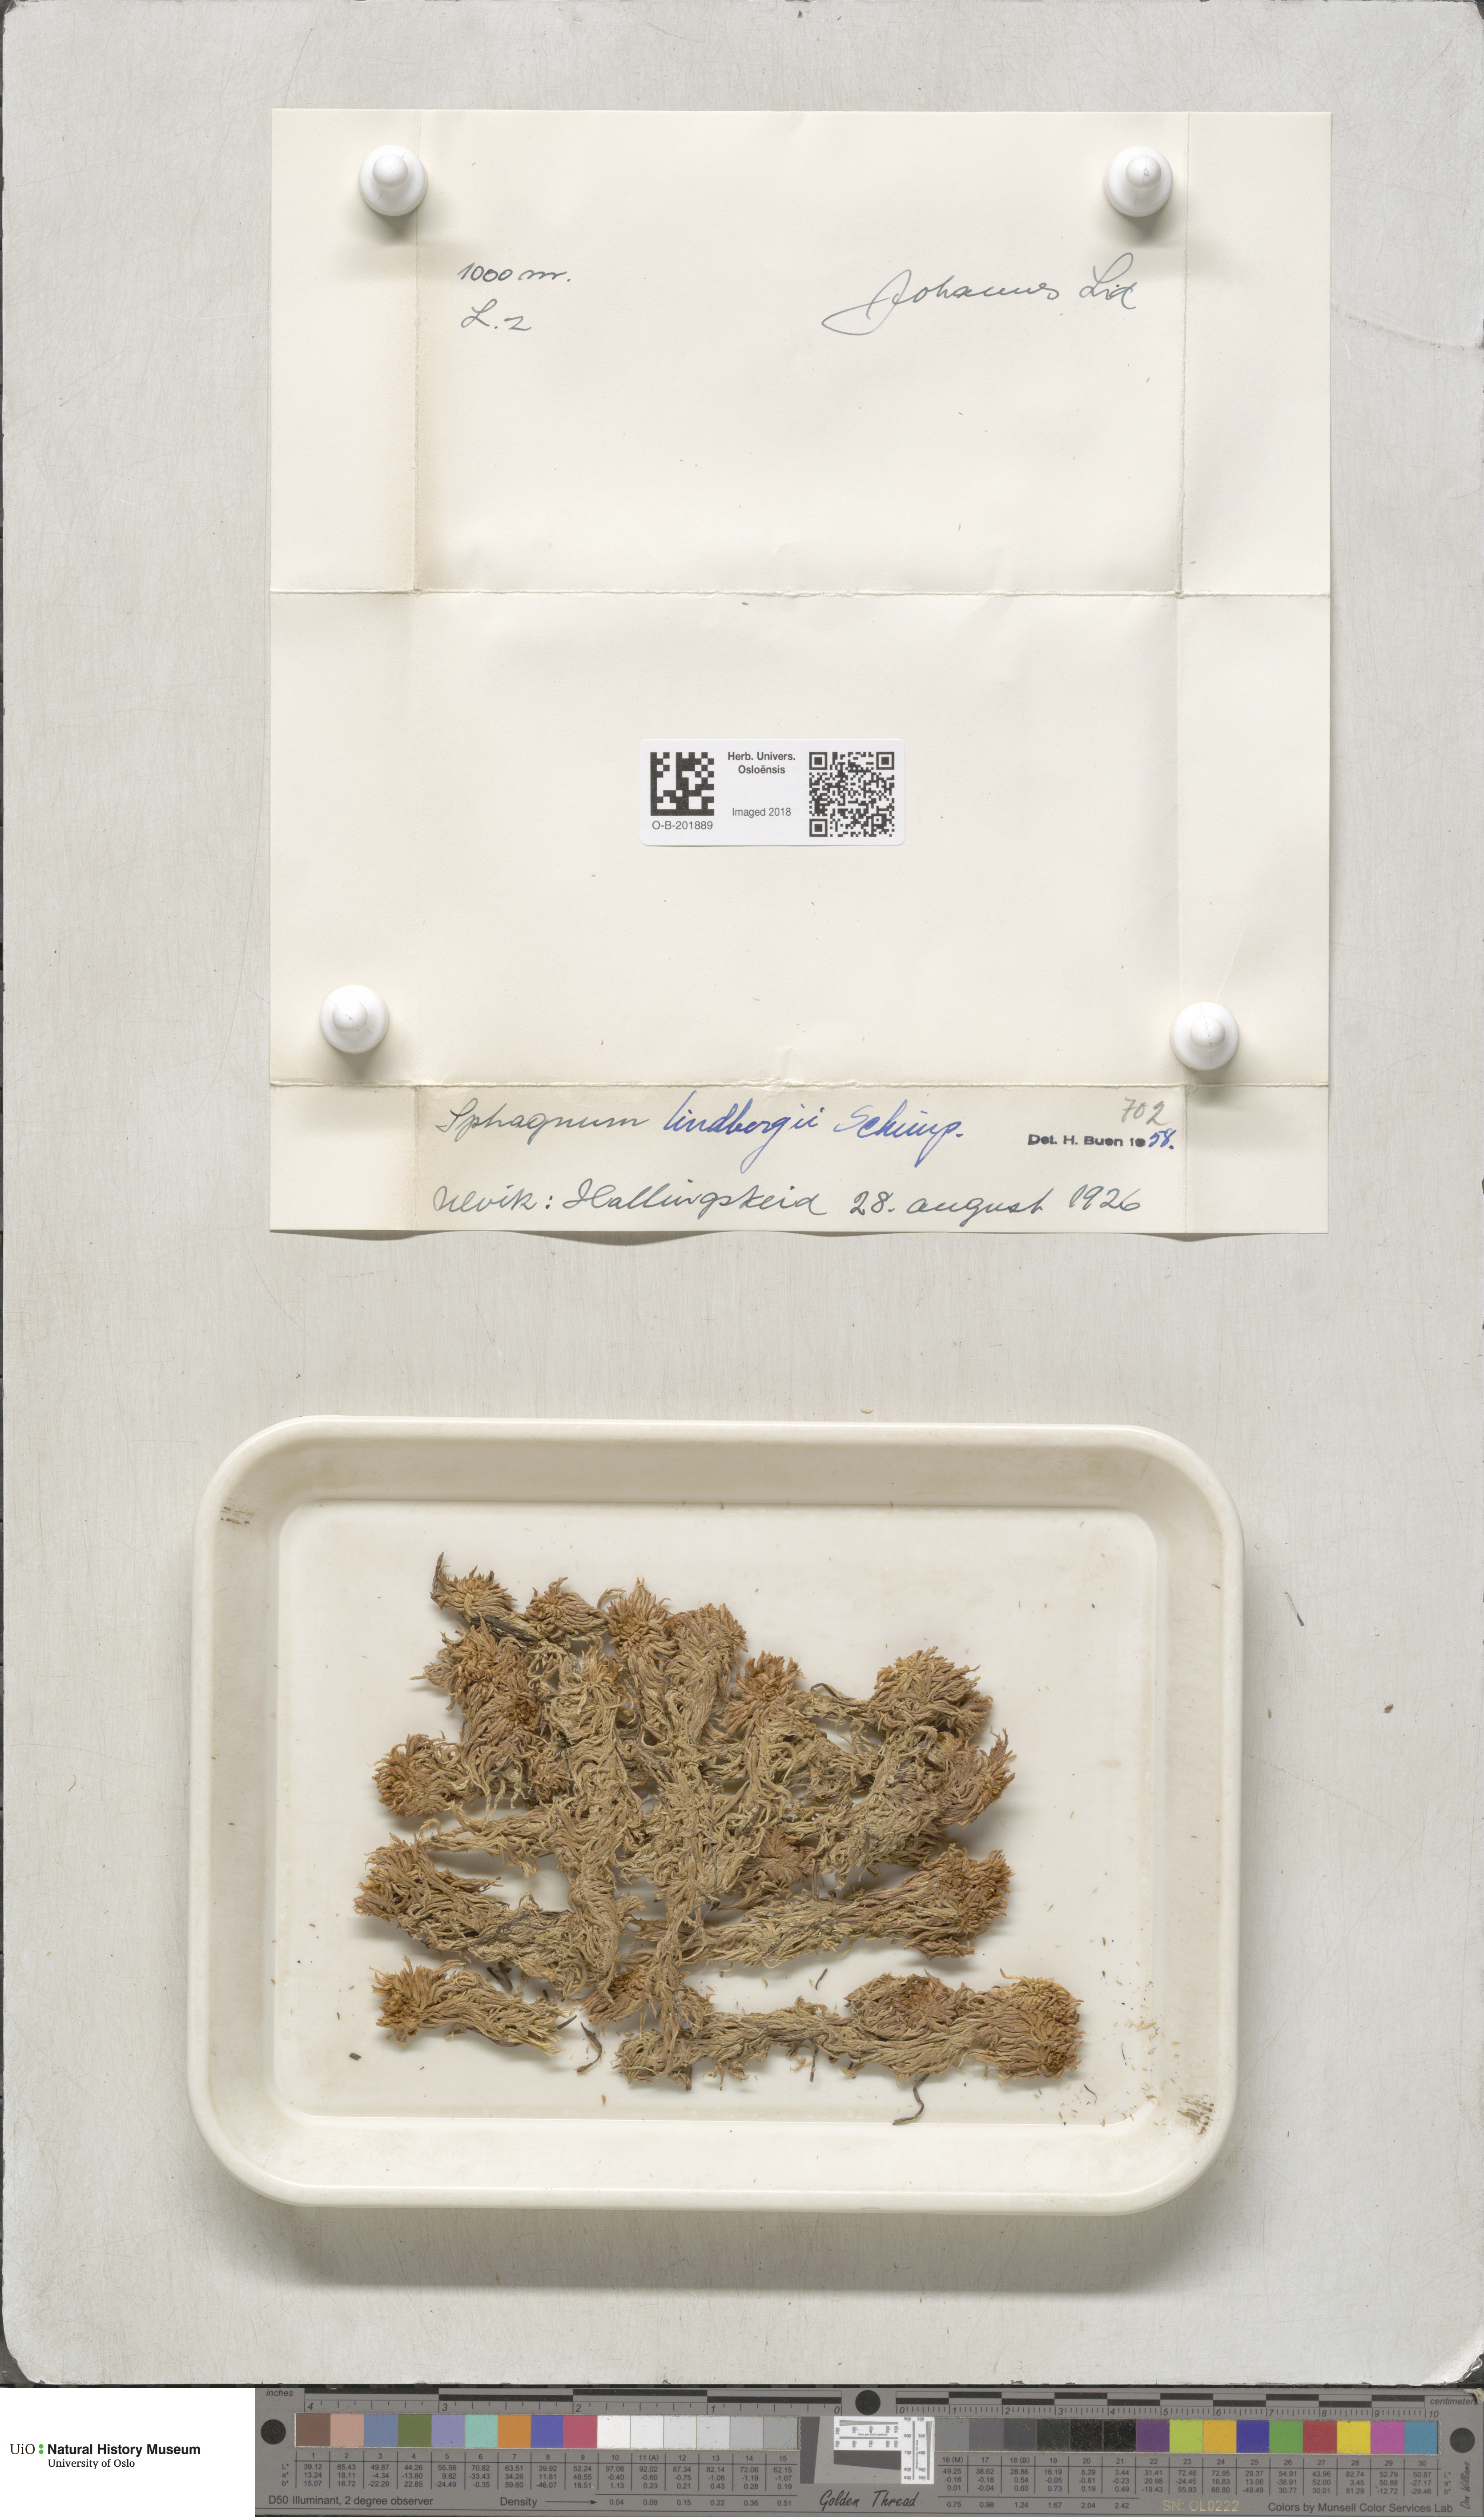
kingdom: Plantae
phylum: Bryophyta
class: Sphagnopsida
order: Sphagnales
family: Sphagnaceae
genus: Sphagnum
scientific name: Sphagnum lindbergii
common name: Lindberg's peat moss
